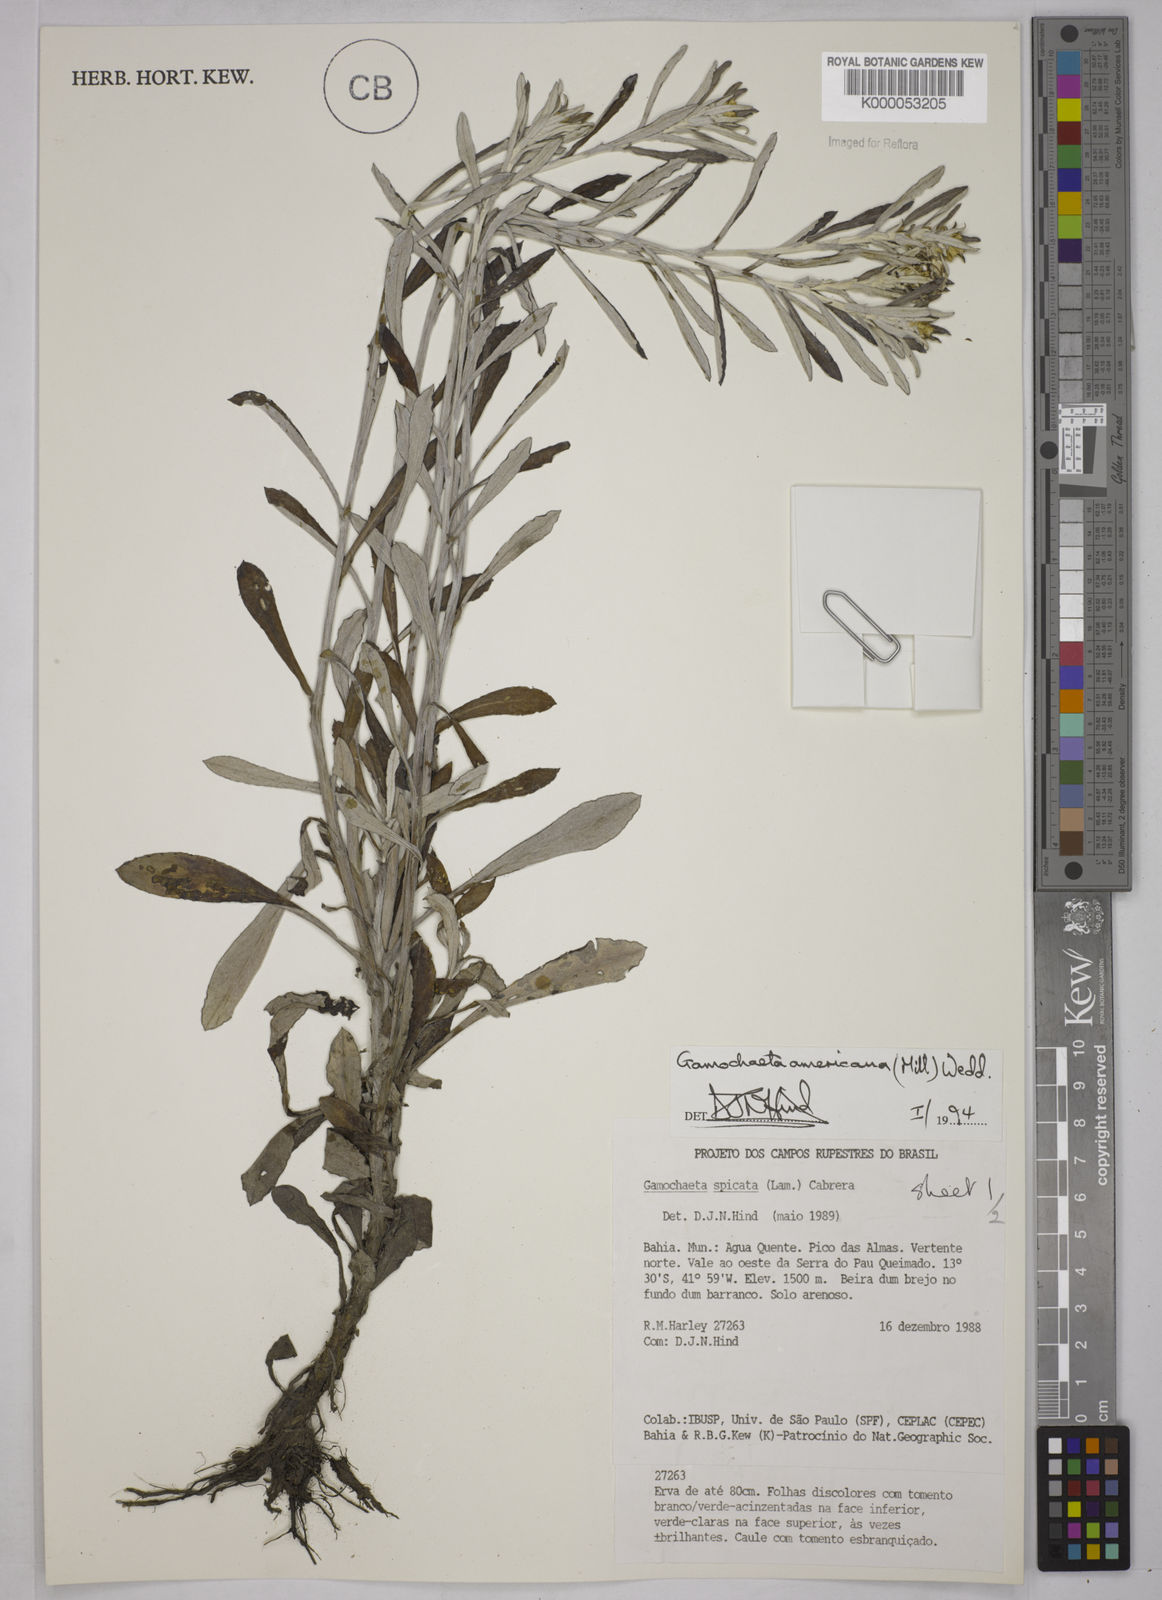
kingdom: Plantae
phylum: Tracheophyta
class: Magnoliopsida
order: Asterales
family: Asteraceae
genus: Gamochaeta
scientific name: Gamochaeta americana
